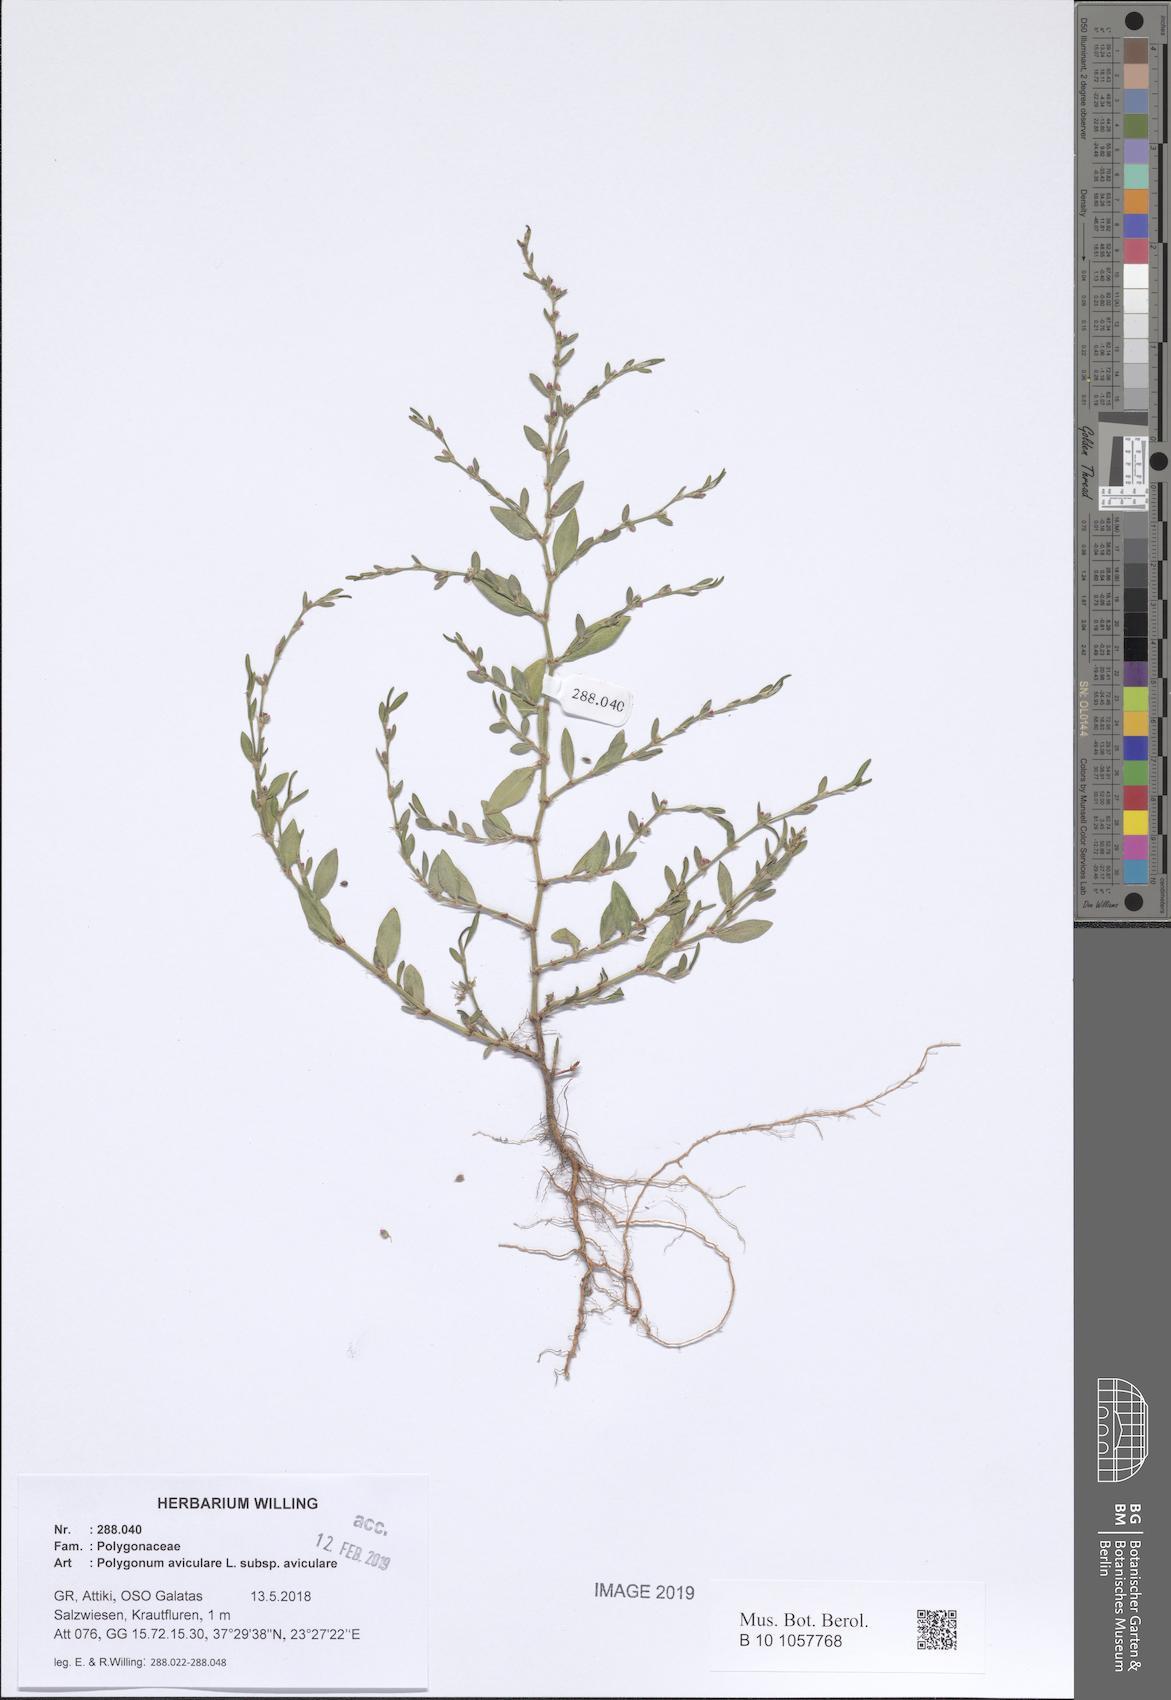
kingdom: Plantae
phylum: Tracheophyta
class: Magnoliopsida
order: Caryophyllales
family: Polygonaceae
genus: Polygonum
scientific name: Polygonum aviculare
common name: Prostrate knotweed
